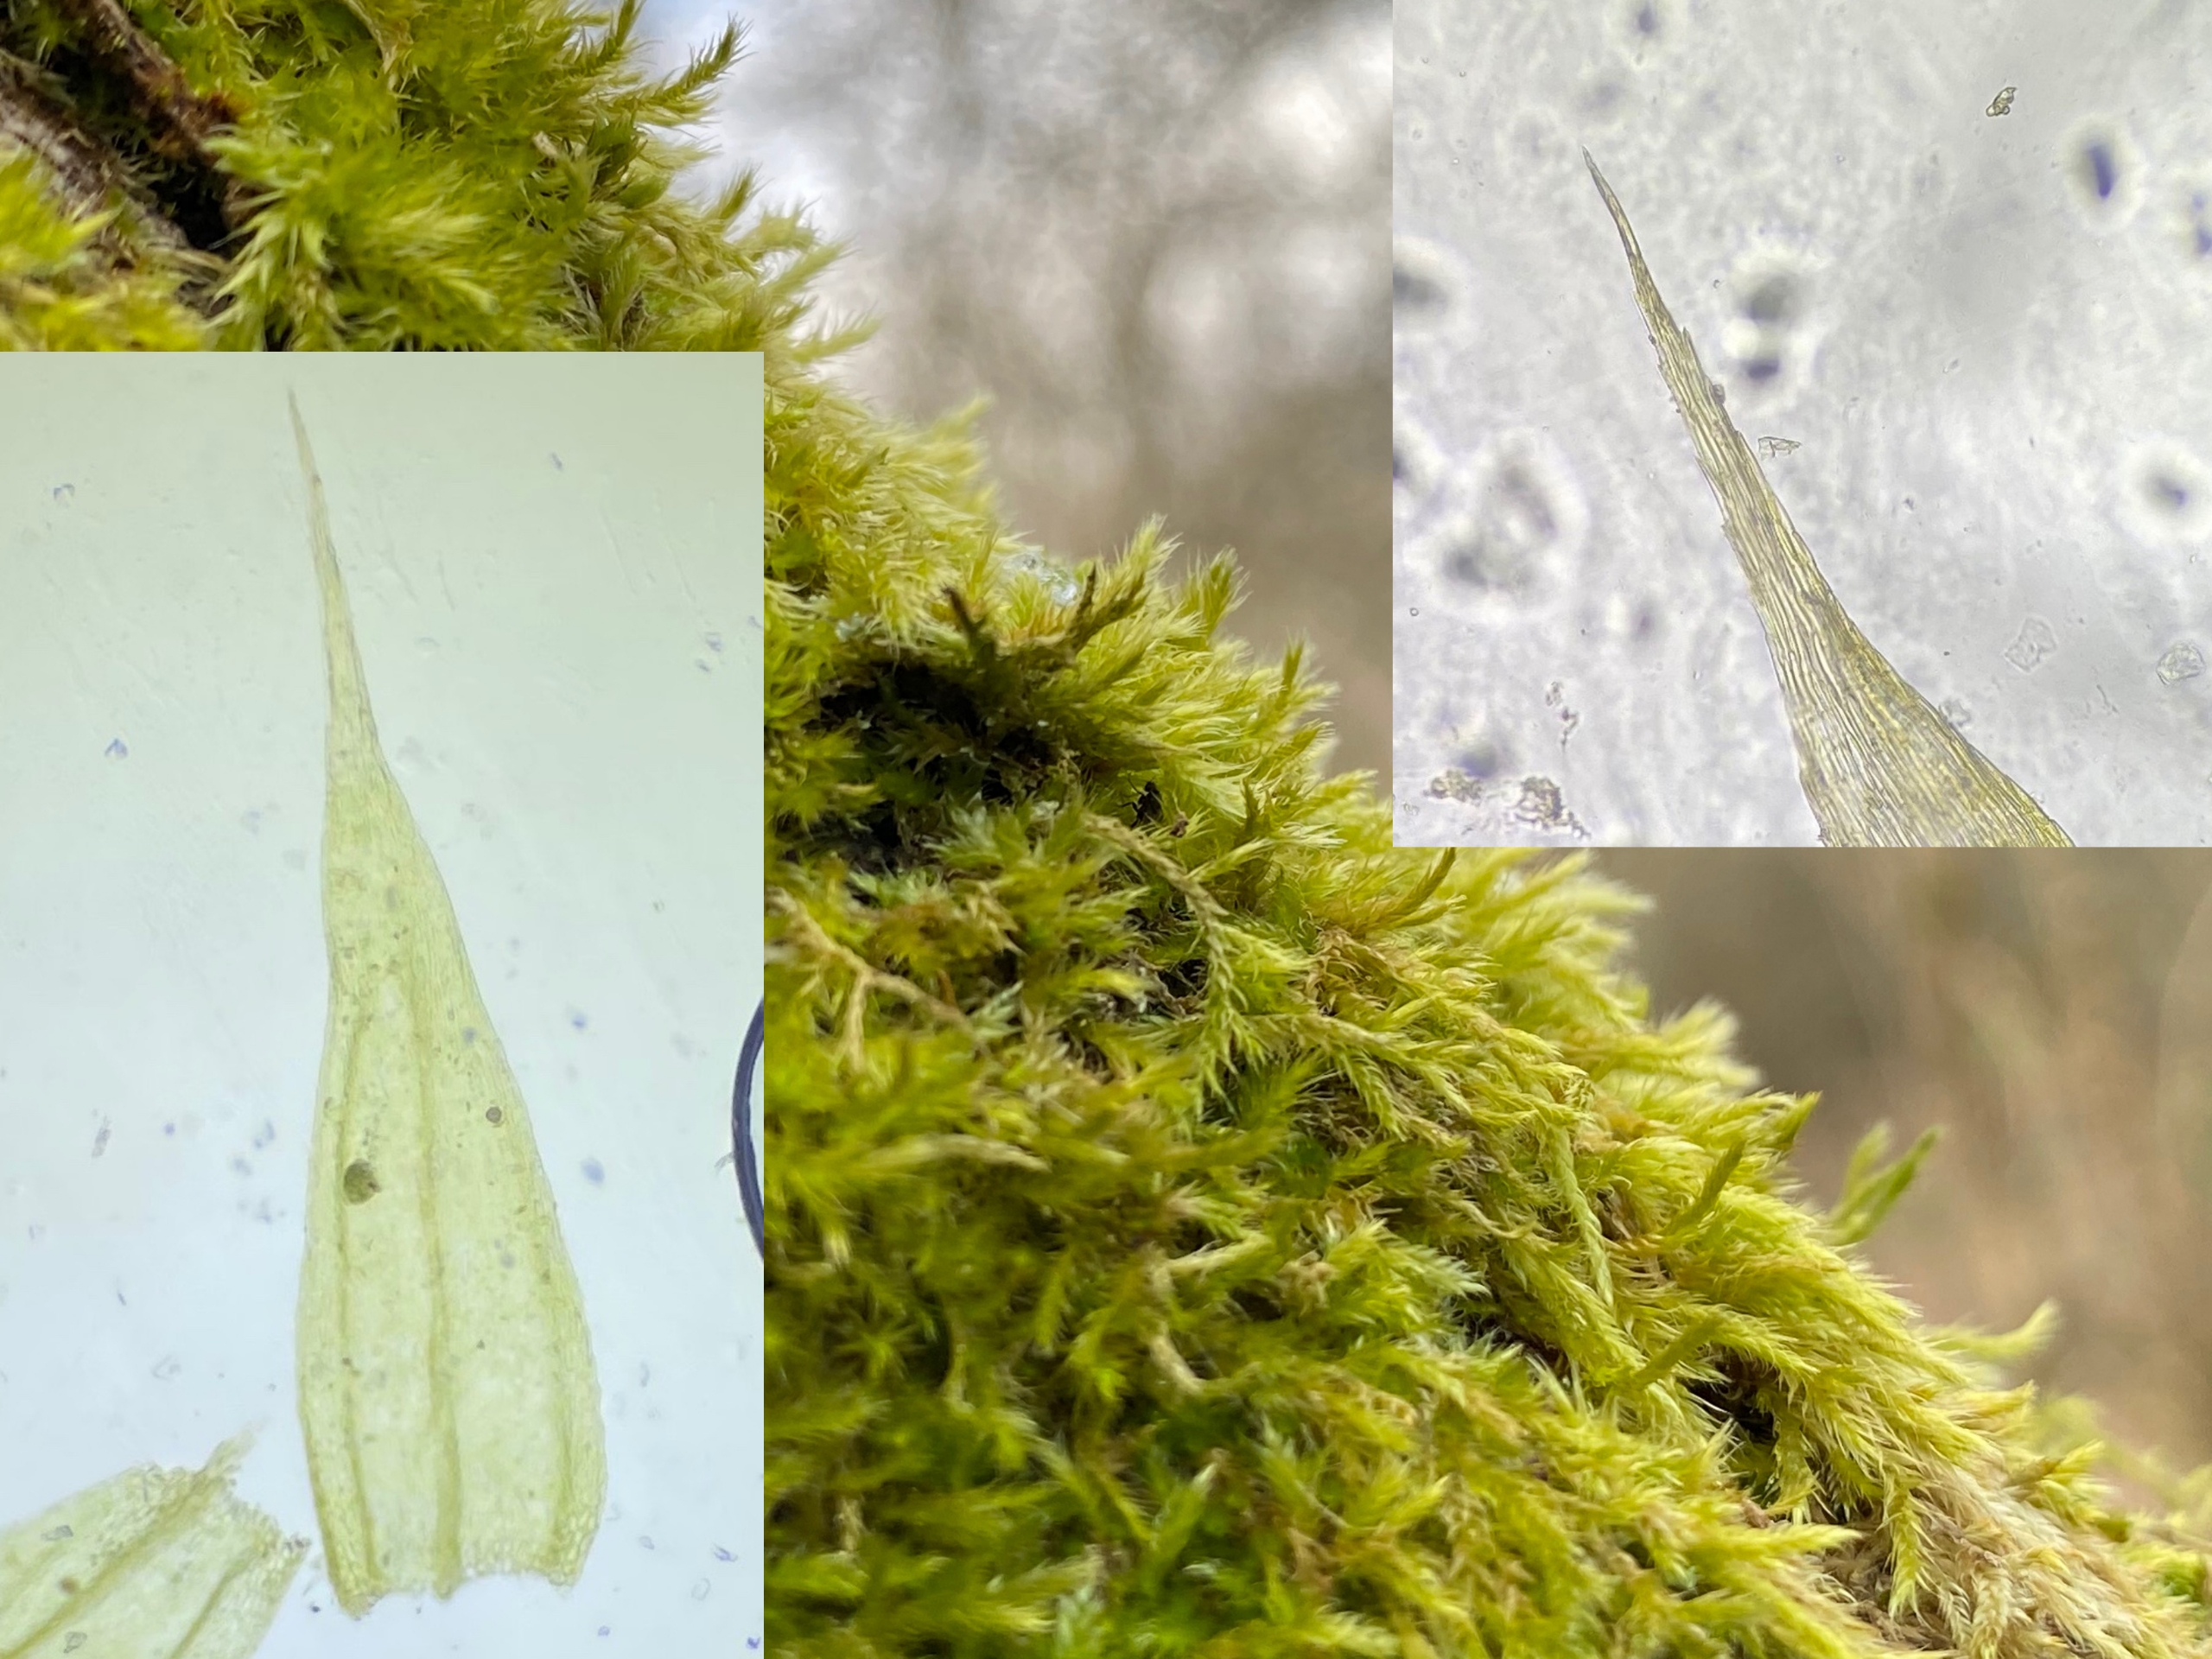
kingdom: Plantae
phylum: Bryophyta
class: Bryopsida
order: Hypnales
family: Brachytheciaceae
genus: Brachythecium
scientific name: Brachythecium salebrosum
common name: Skov-kortkapsel
